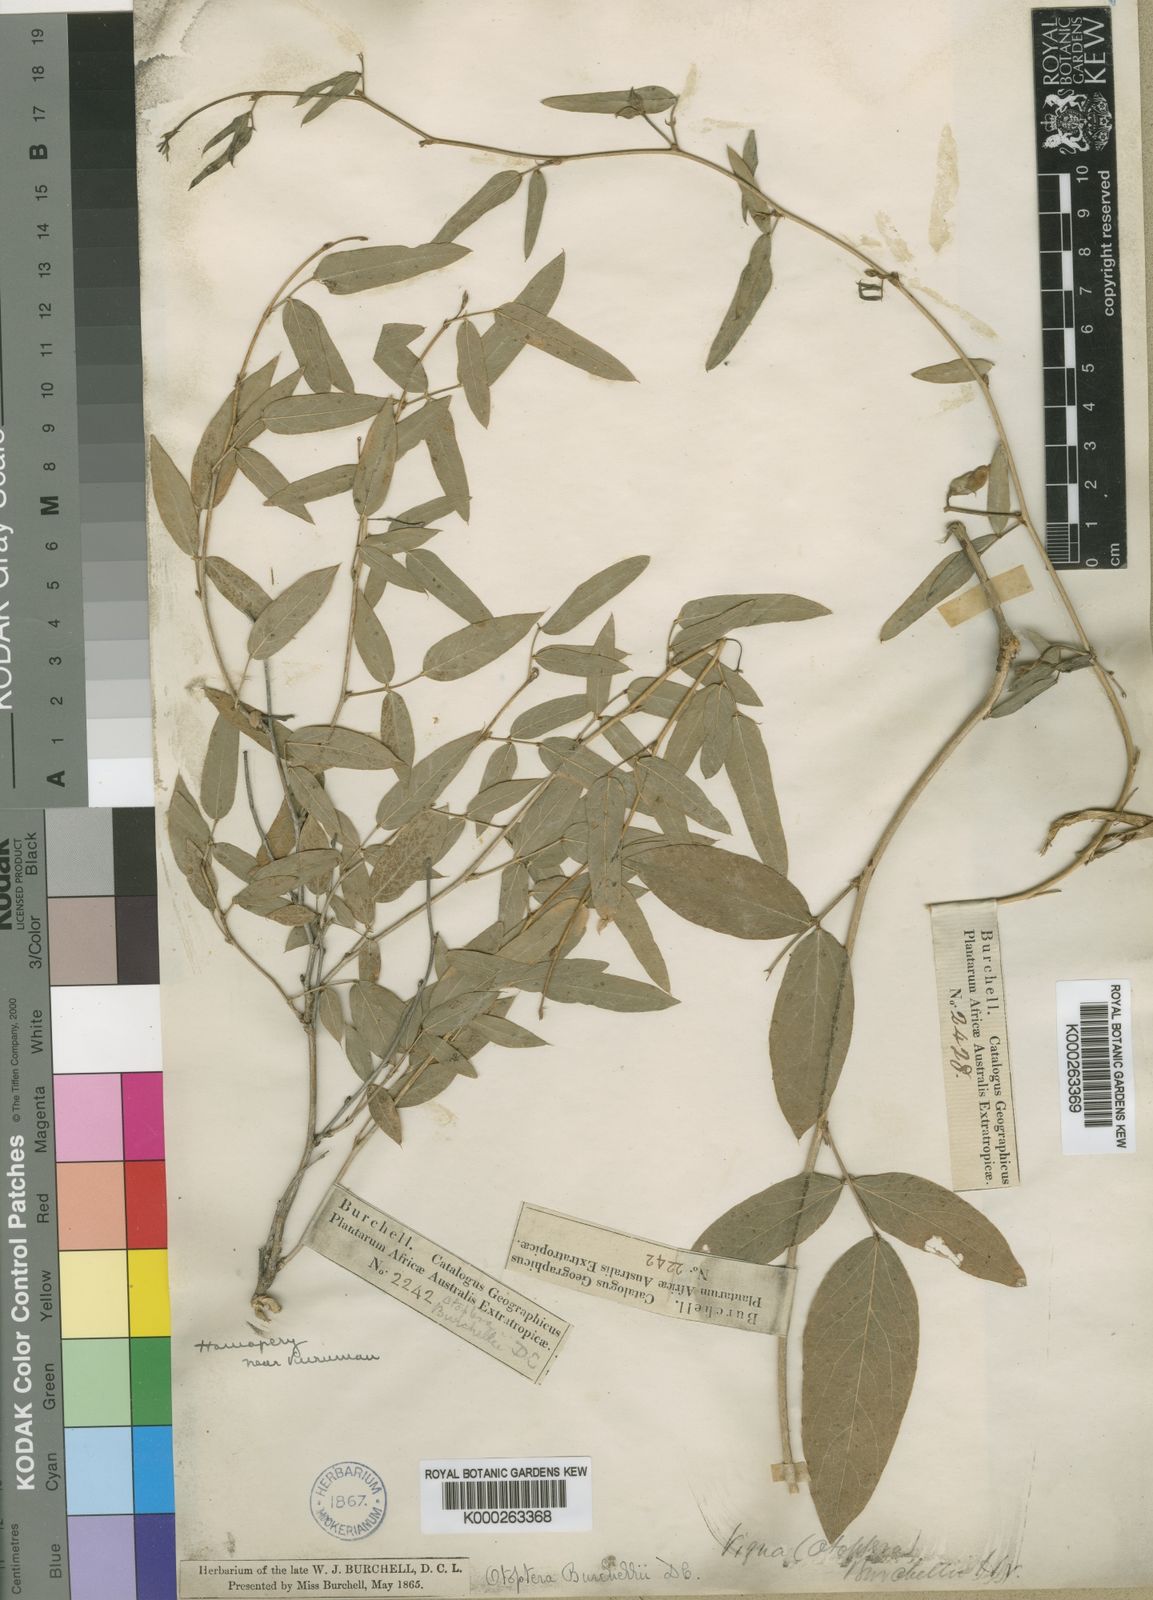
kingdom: Plantae
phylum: Tracheophyta
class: Magnoliopsida
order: Fabales
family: Fabaceae
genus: Otoptera
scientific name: Otoptera
